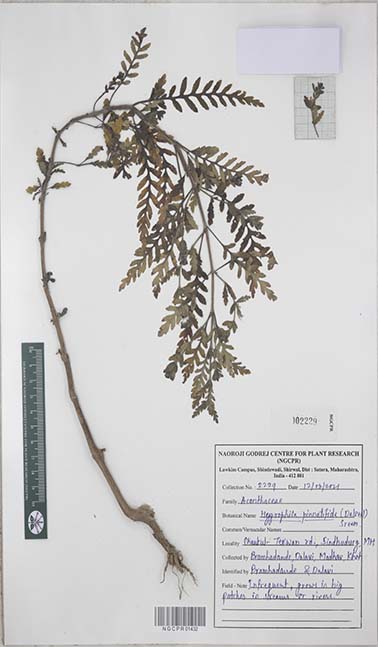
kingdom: Plantae
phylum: Tracheophyta
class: Magnoliopsida
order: Lamiales
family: Acanthaceae
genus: Hygrophila
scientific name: Hygrophila pinnatifida
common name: Indian swampweed
